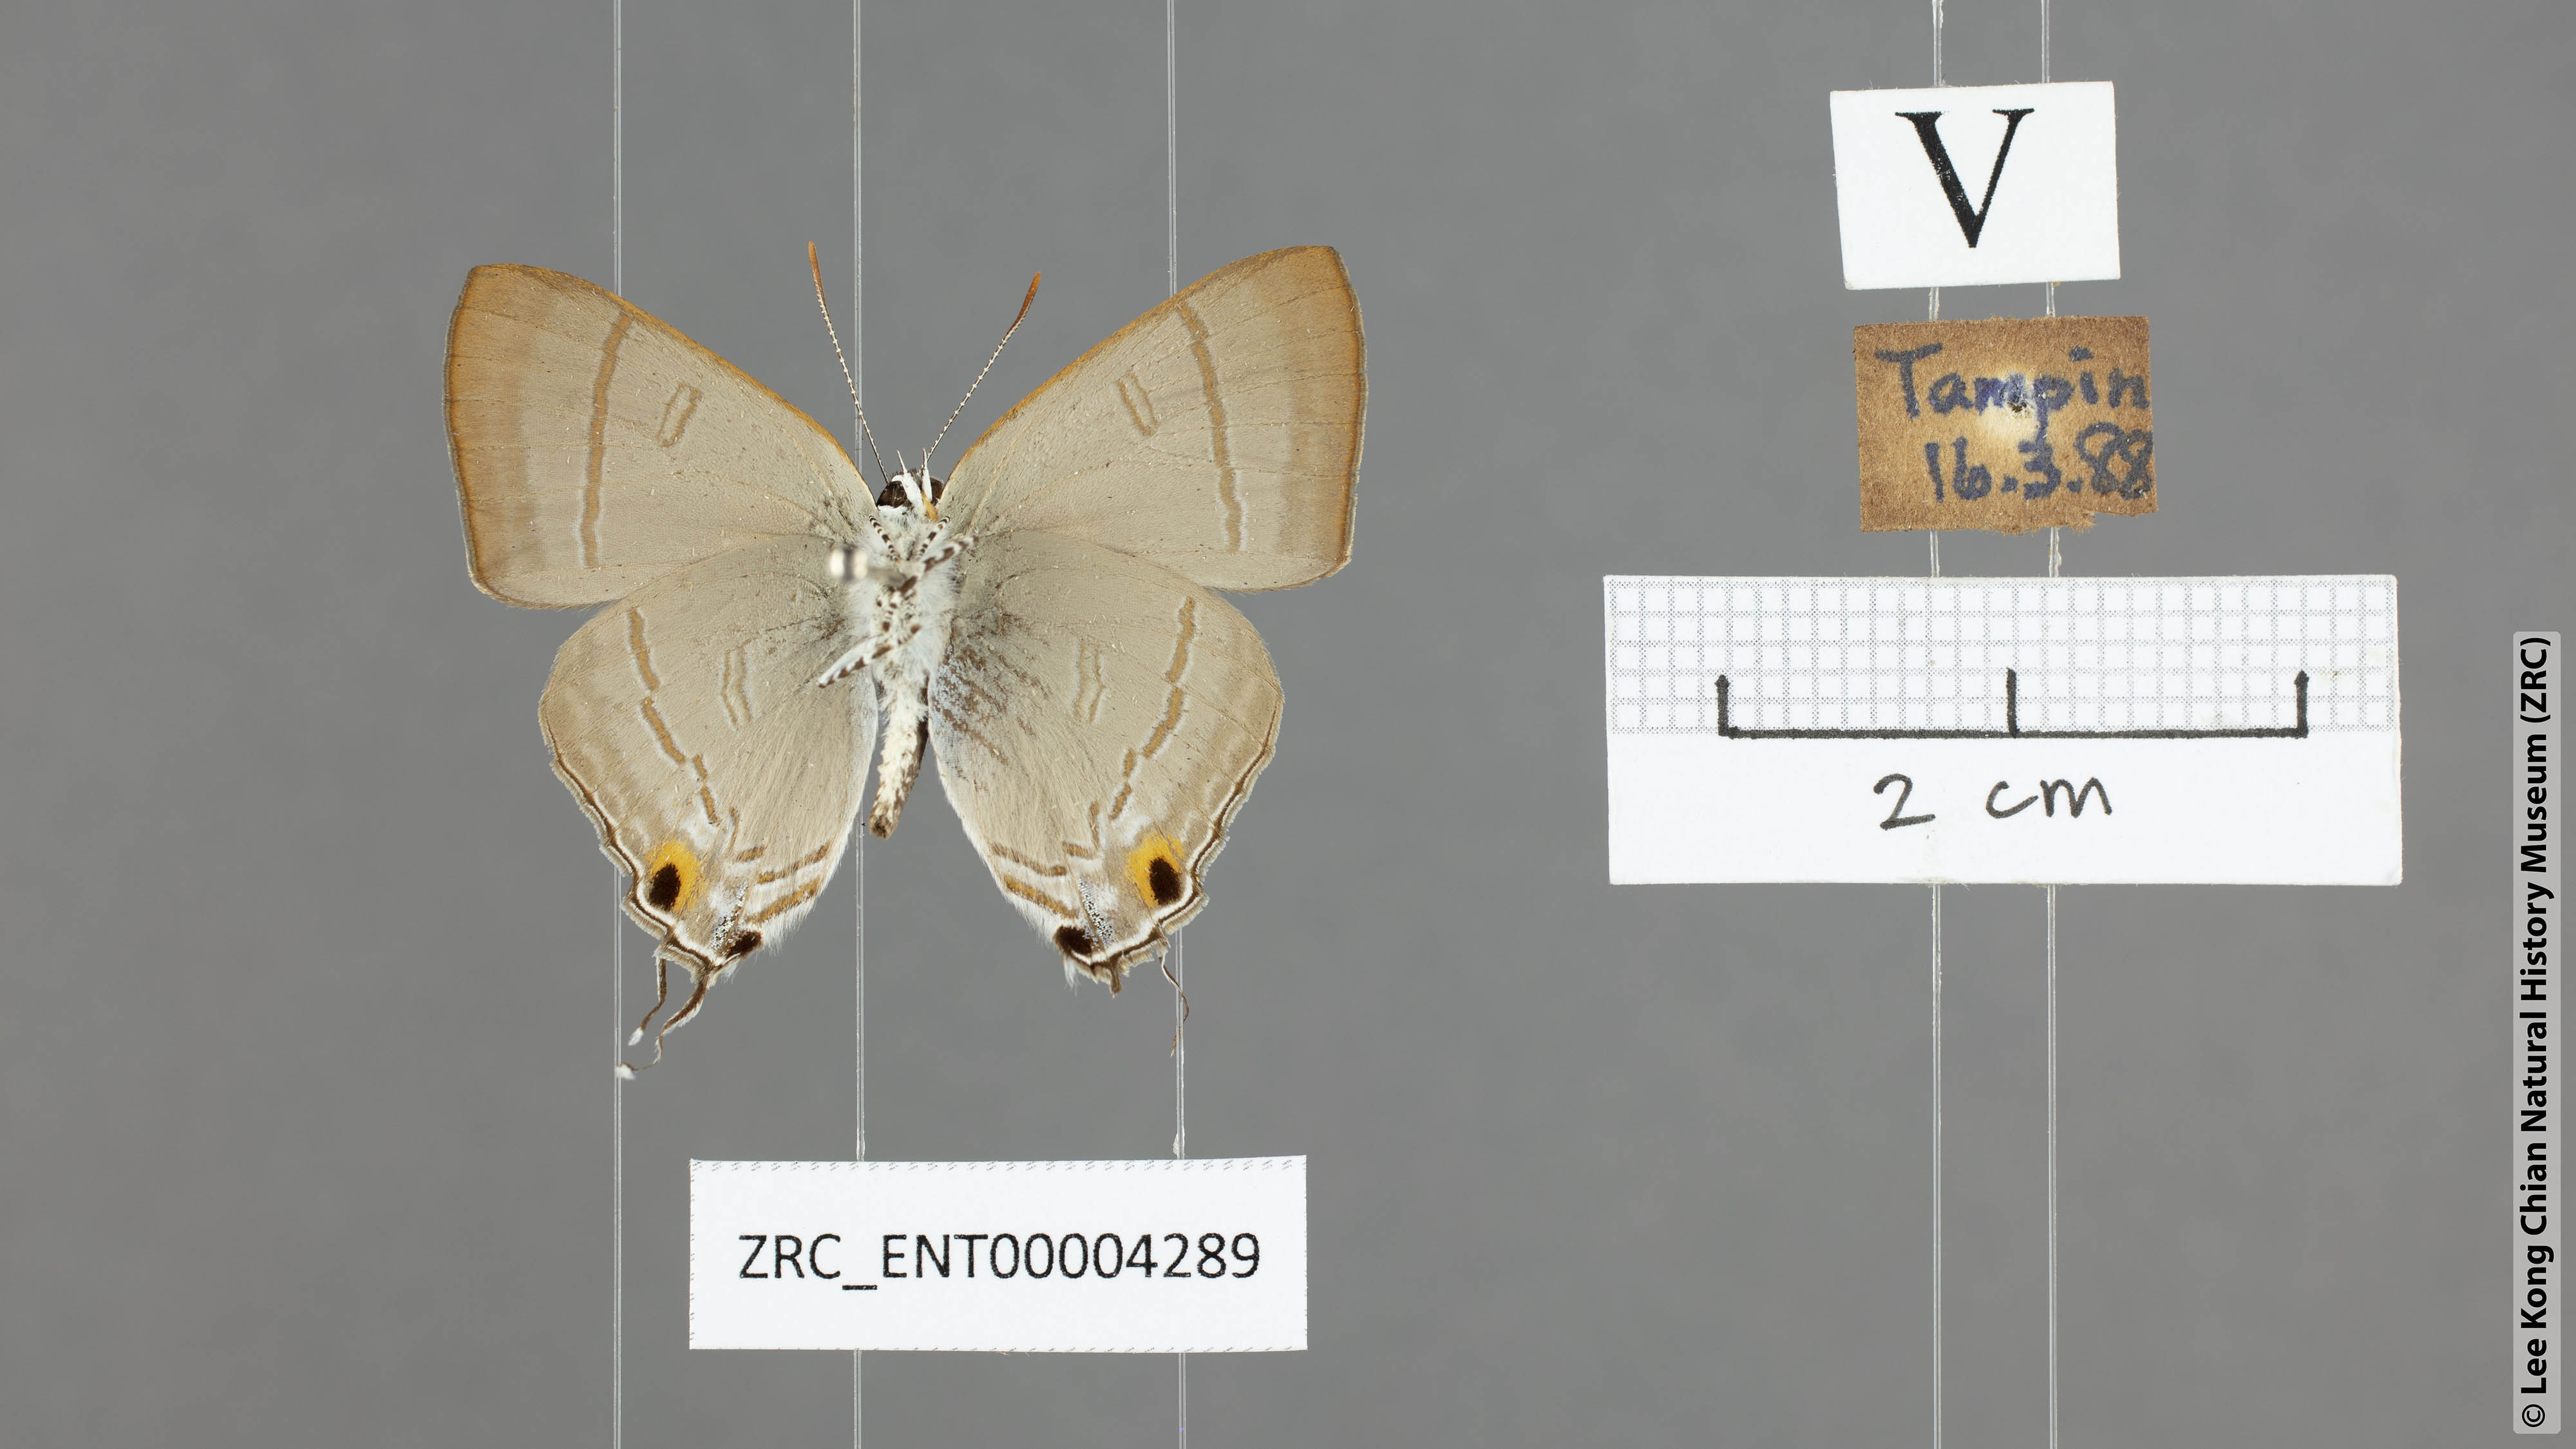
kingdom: Animalia
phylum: Arthropoda
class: Insecta
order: Lepidoptera
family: Lycaenidae
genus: Hypolycaena
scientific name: Hypolycaena erylus
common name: Common tit
